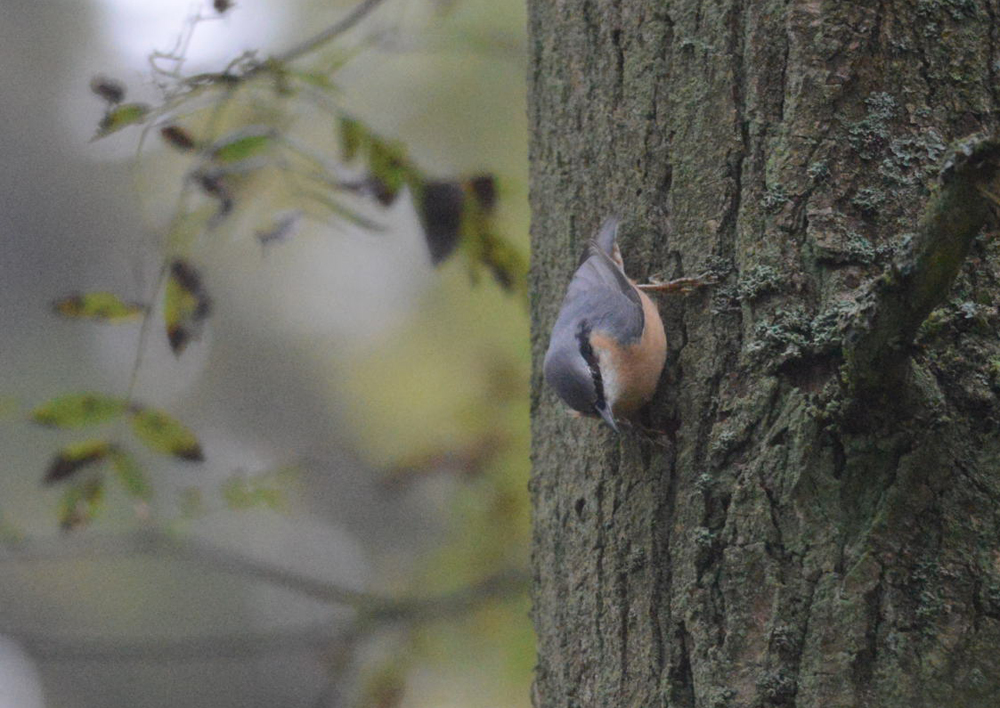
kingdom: Animalia
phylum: Chordata
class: Aves
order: Passeriformes
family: Sittidae
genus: Sitta
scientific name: Sitta europaea
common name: Eurasian nuthatch
